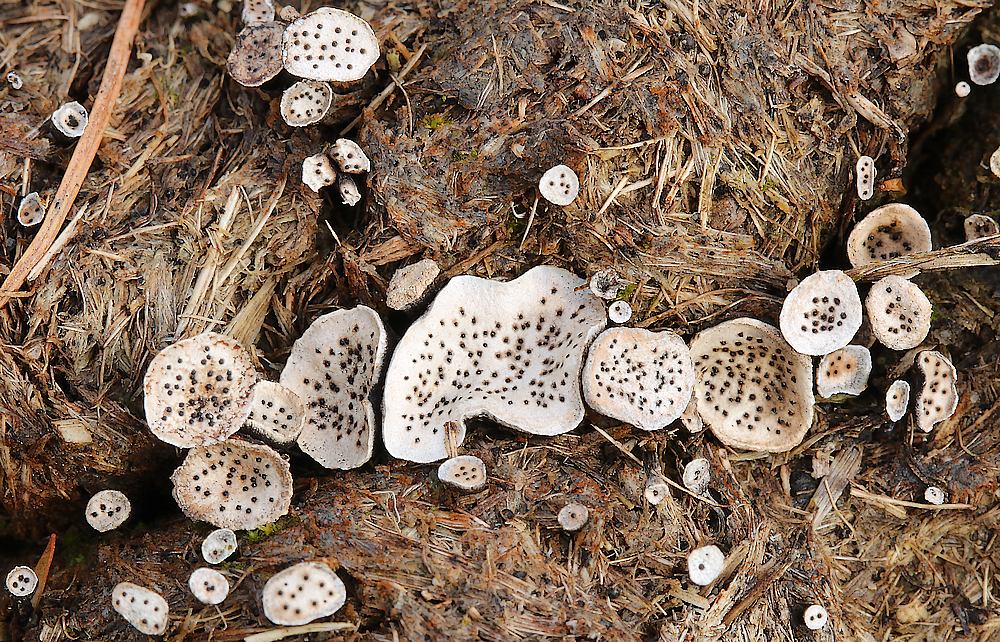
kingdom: Fungi
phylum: Ascomycota
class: Sordariomycetes
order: Xylariales
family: Xylariaceae
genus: Poronia
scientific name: Poronia punctata
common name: stor priksvamp
